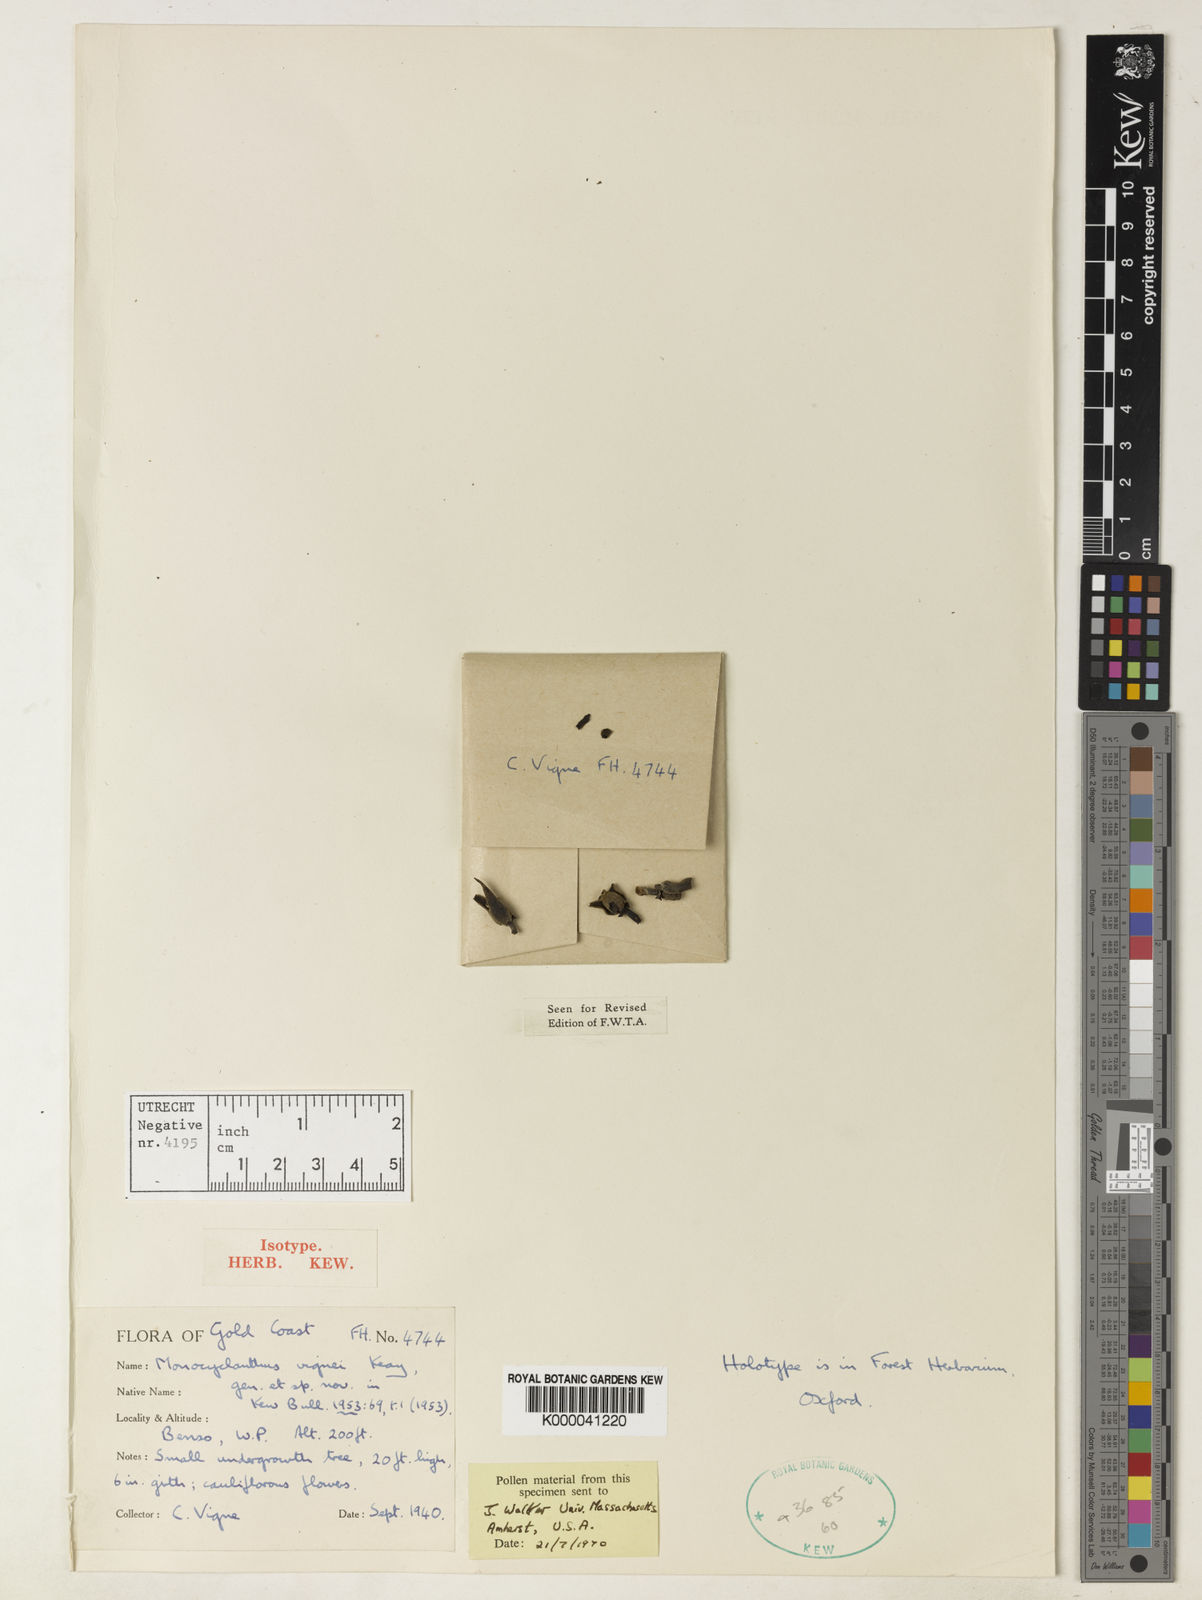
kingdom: Plantae
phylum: Tracheophyta
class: Magnoliopsida
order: Magnoliales
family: Annonaceae
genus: Monocyclanthus
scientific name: Monocyclanthus vignei
